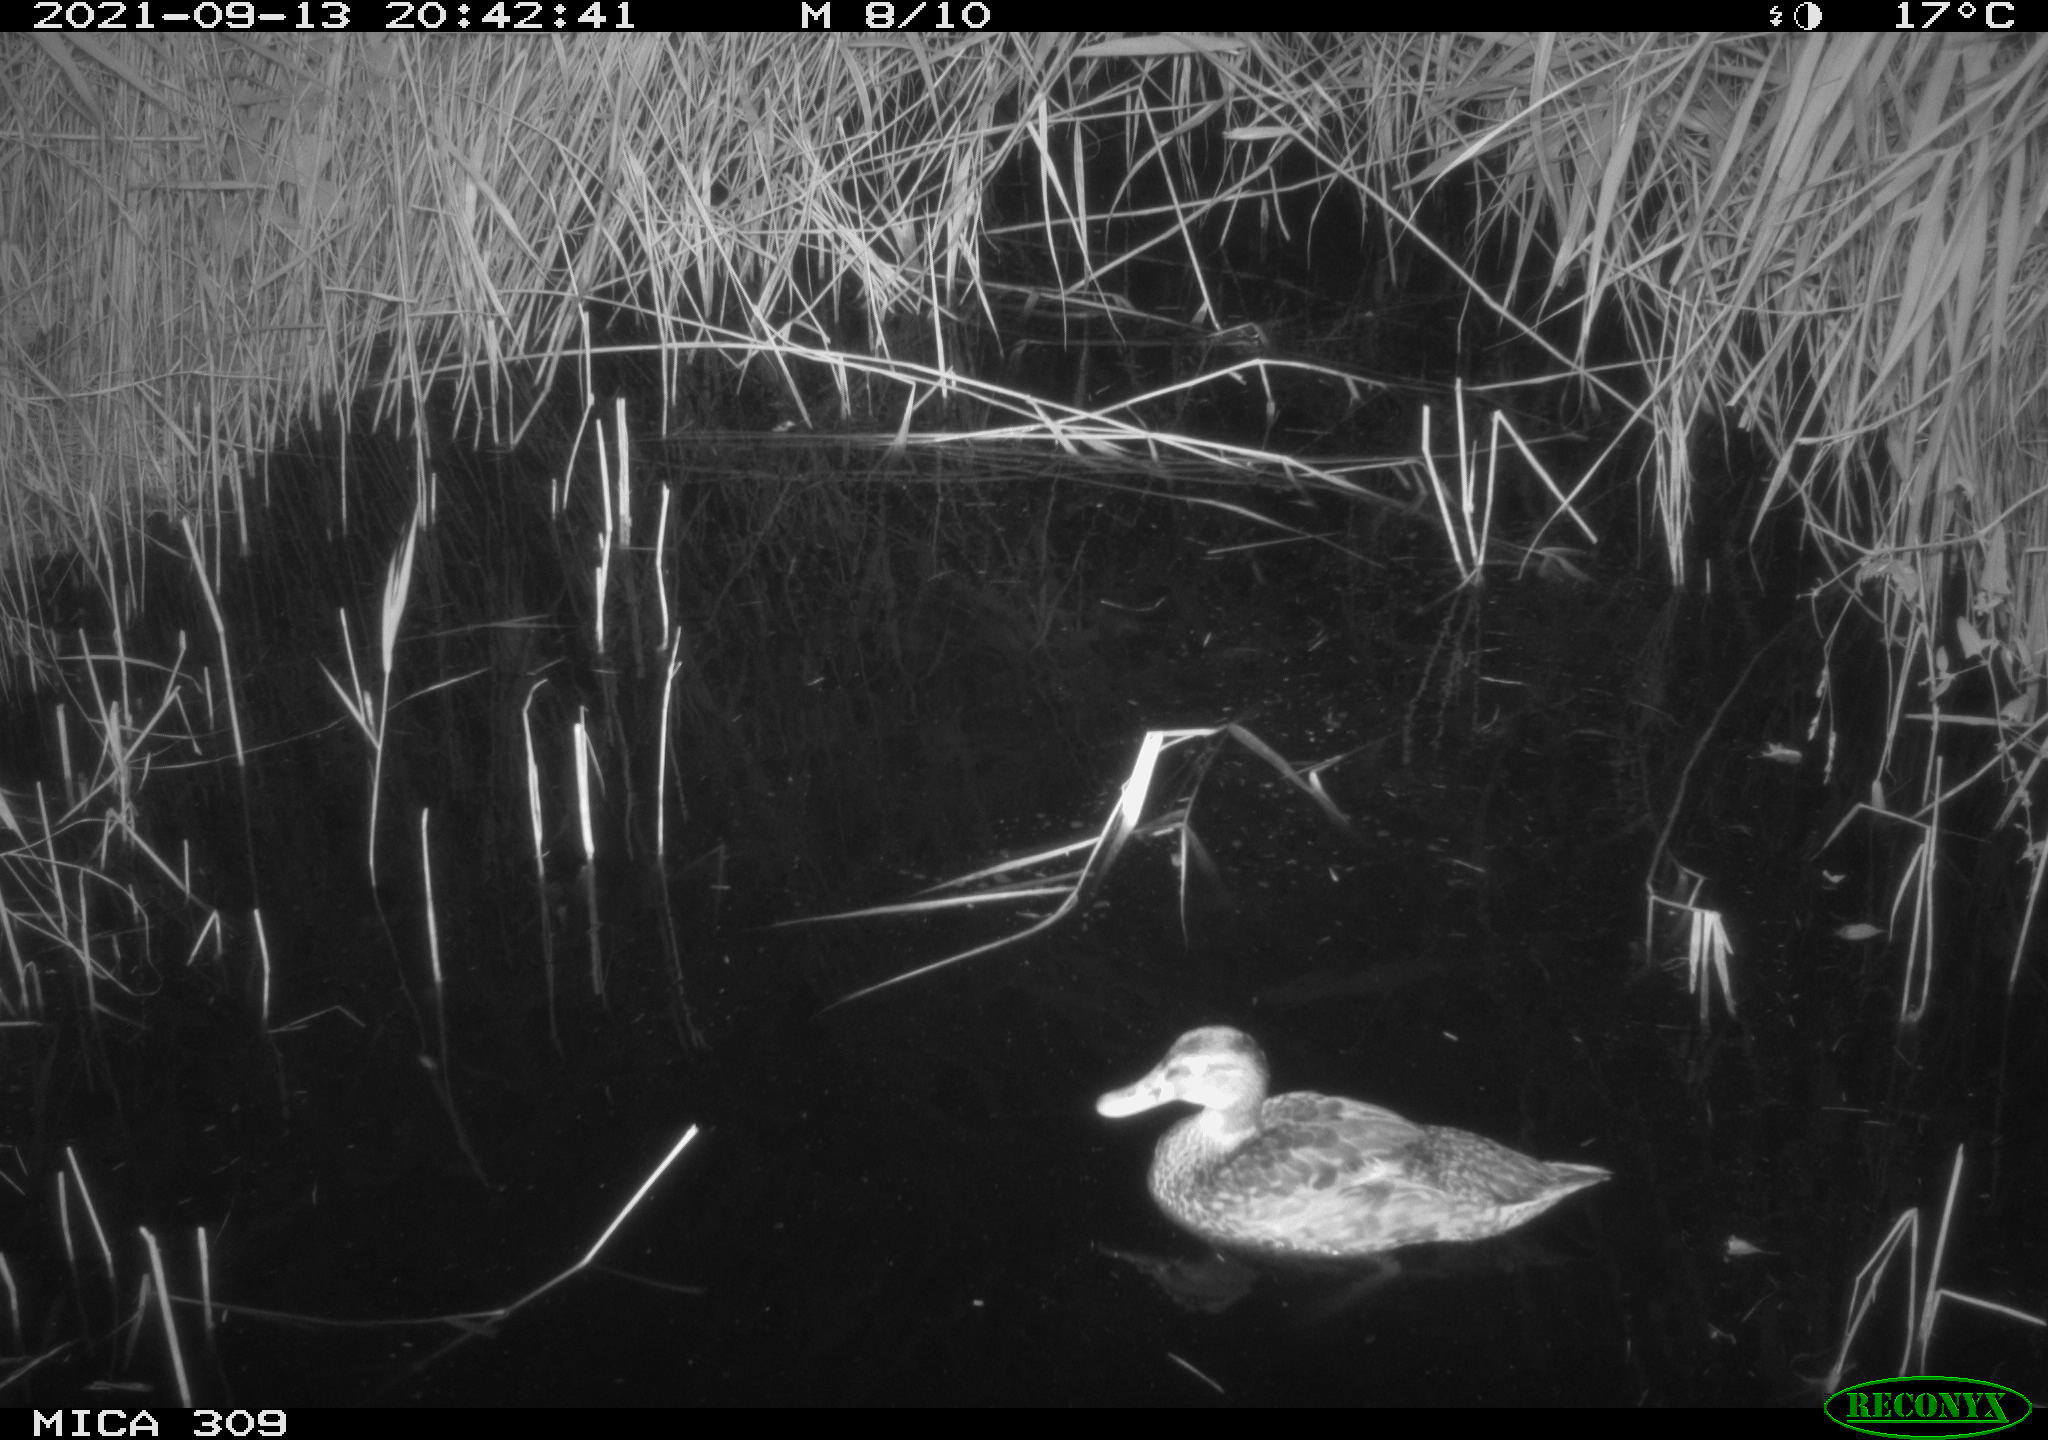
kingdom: Animalia
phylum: Chordata
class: Aves
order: Anseriformes
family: Anatidae
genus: Mareca
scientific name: Mareca strepera
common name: Gadwall
